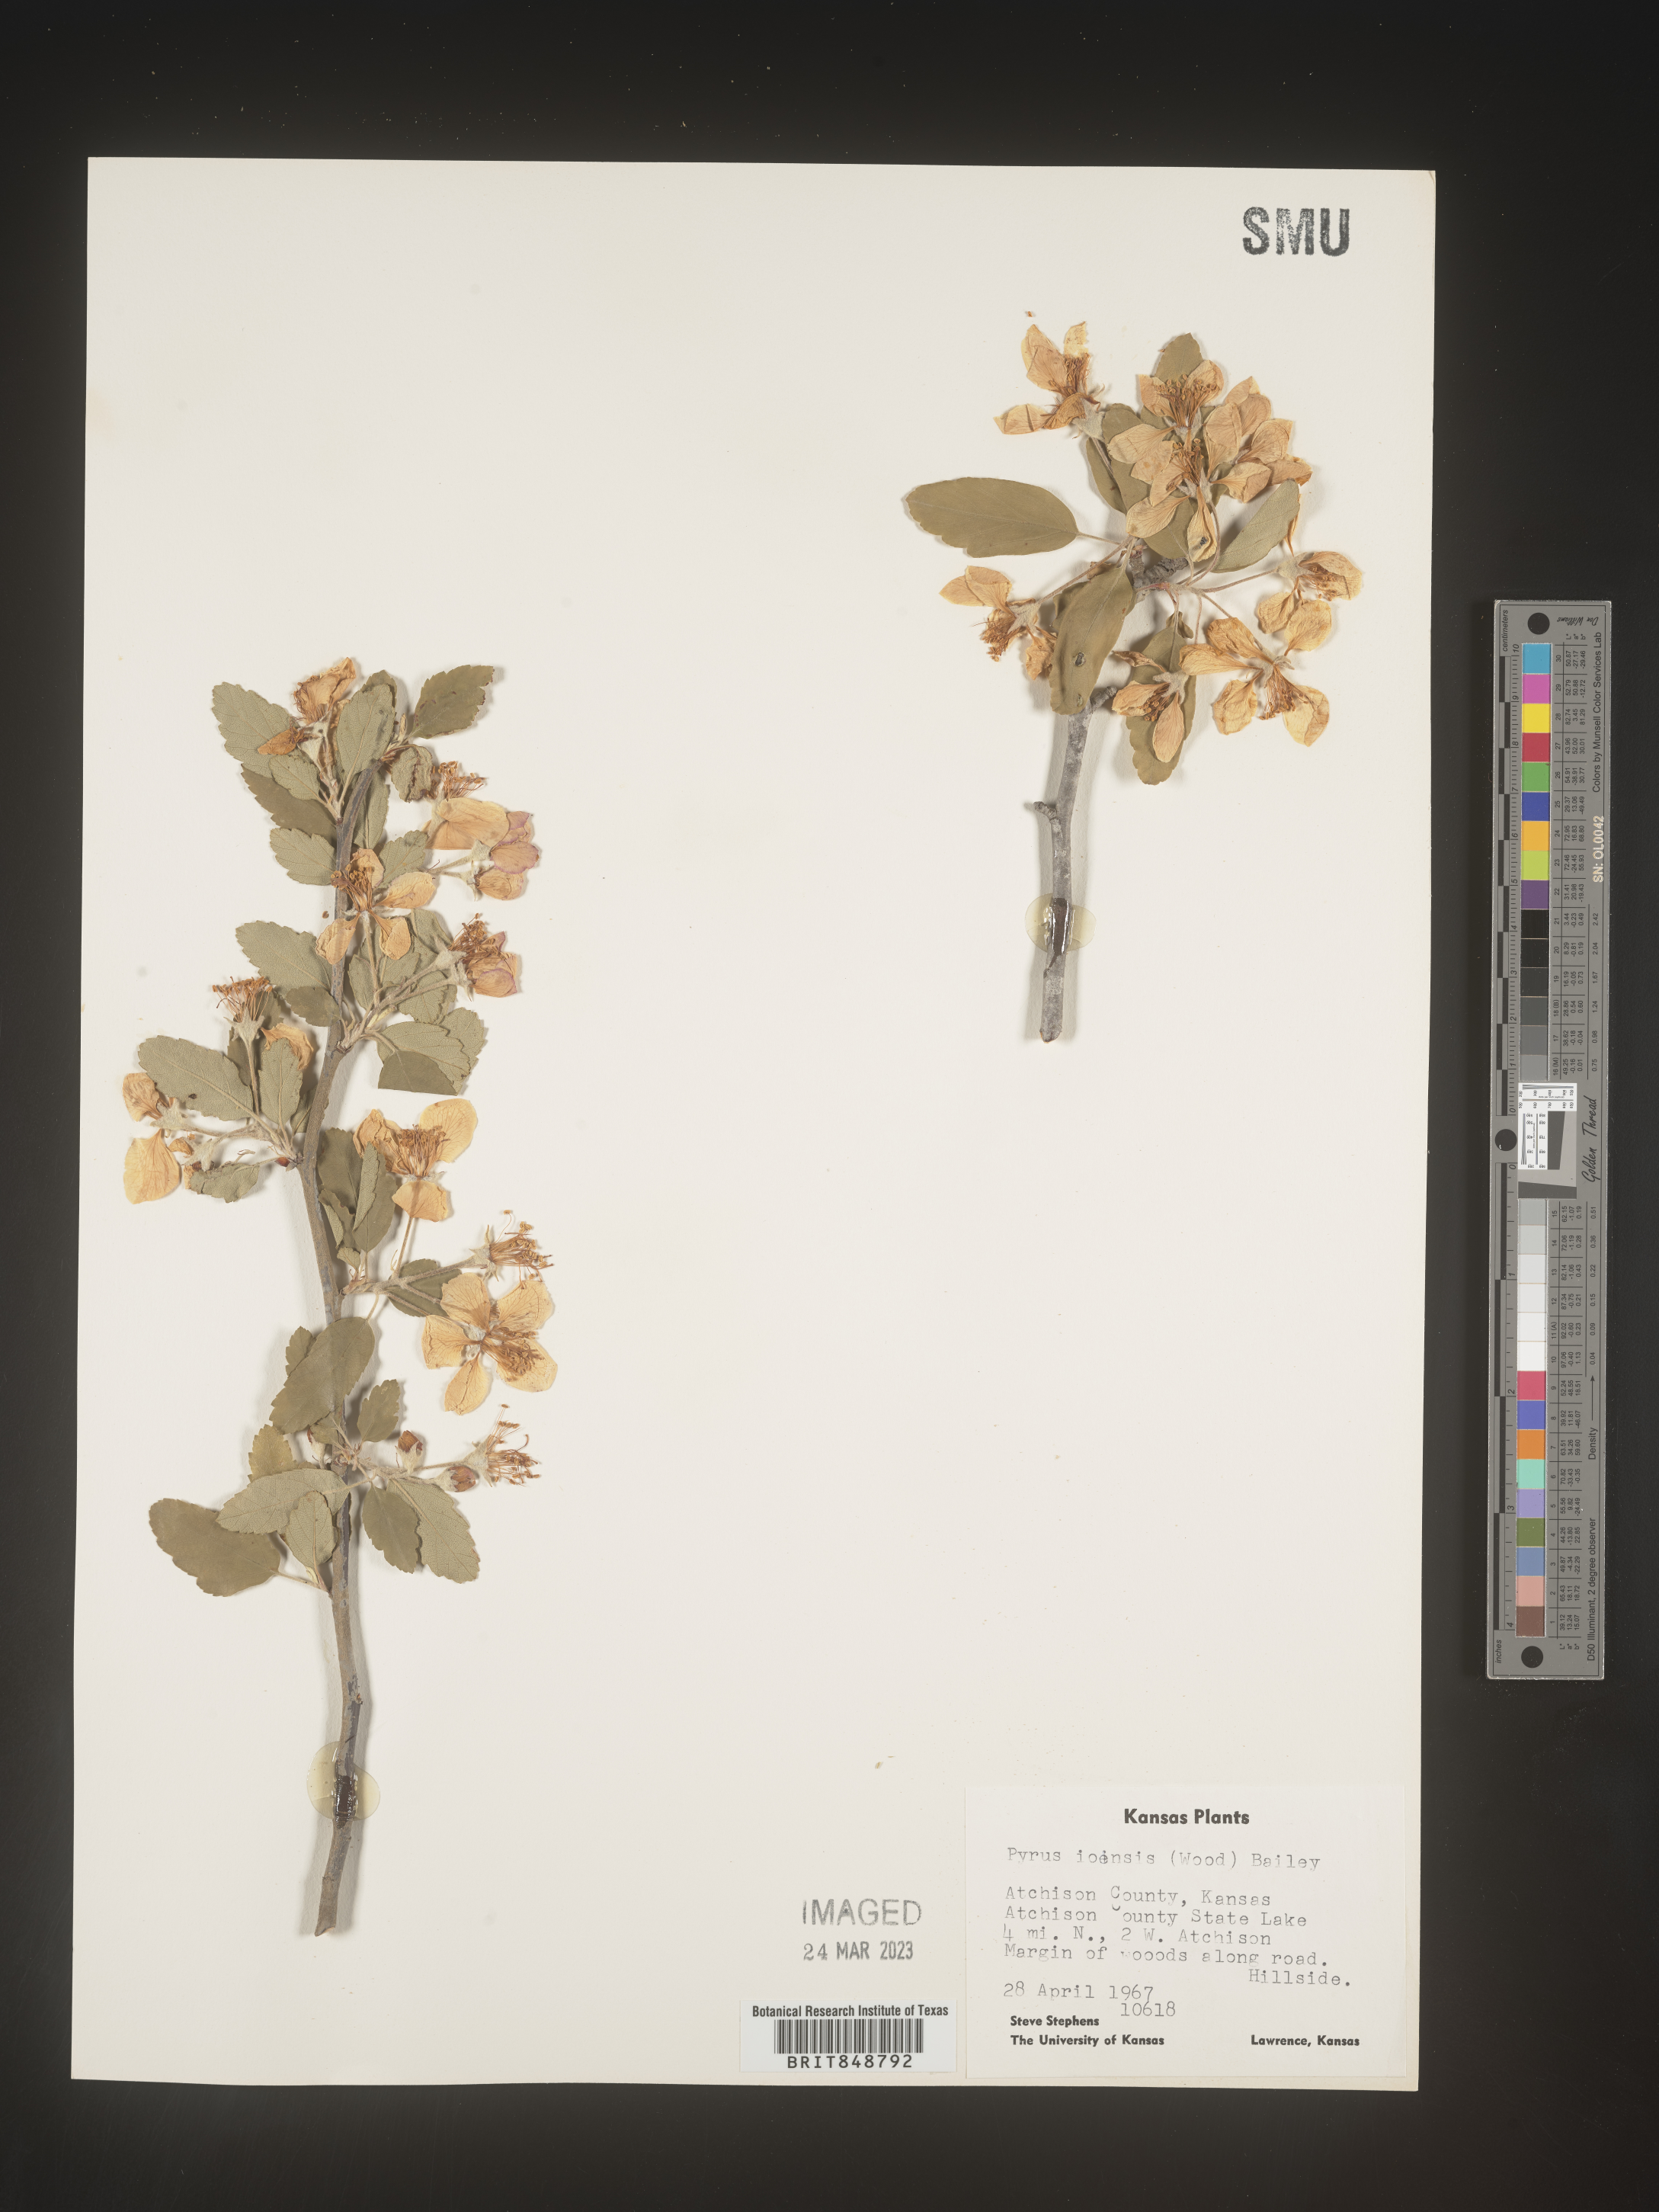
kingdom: Plantae
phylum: Tracheophyta
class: Magnoliopsida
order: Rosales
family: Rosaceae
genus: Malus
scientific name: Malus ioensis
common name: Iowa crab apple
